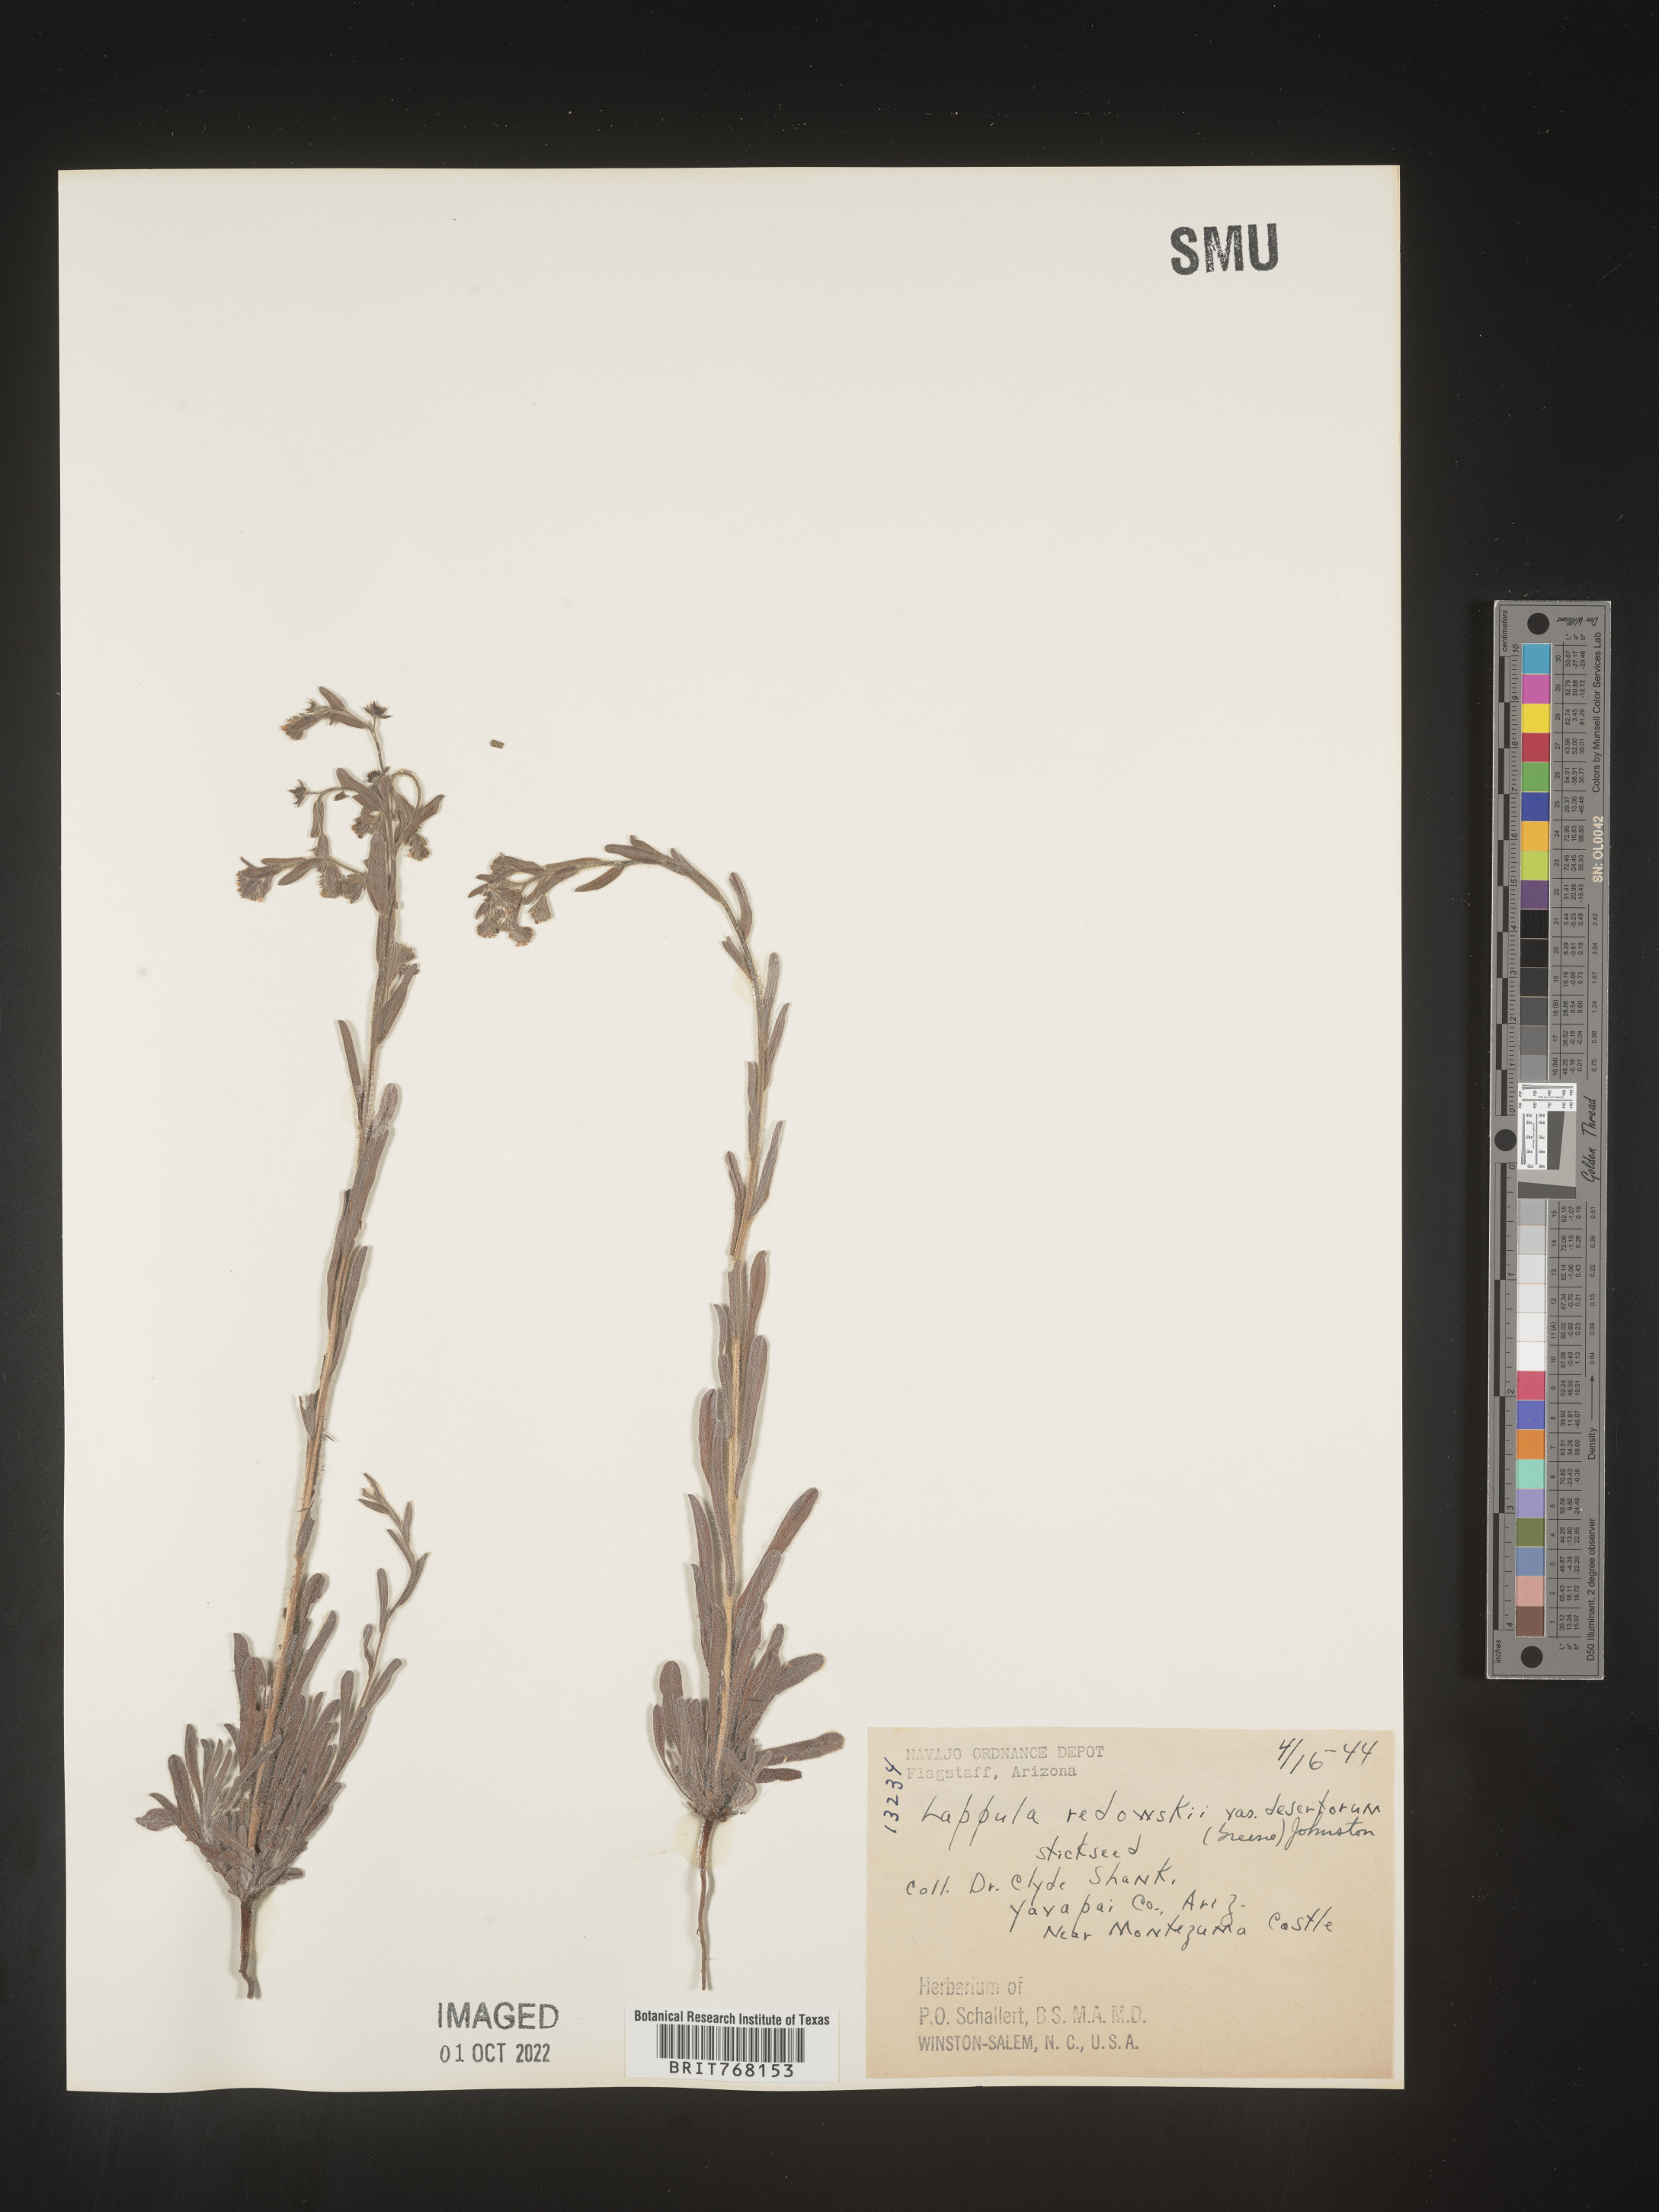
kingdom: Plantae
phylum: Tracheophyta
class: Magnoliopsida
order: Boraginales
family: Boraginaceae
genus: Lappula
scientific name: Lappula redowskii
